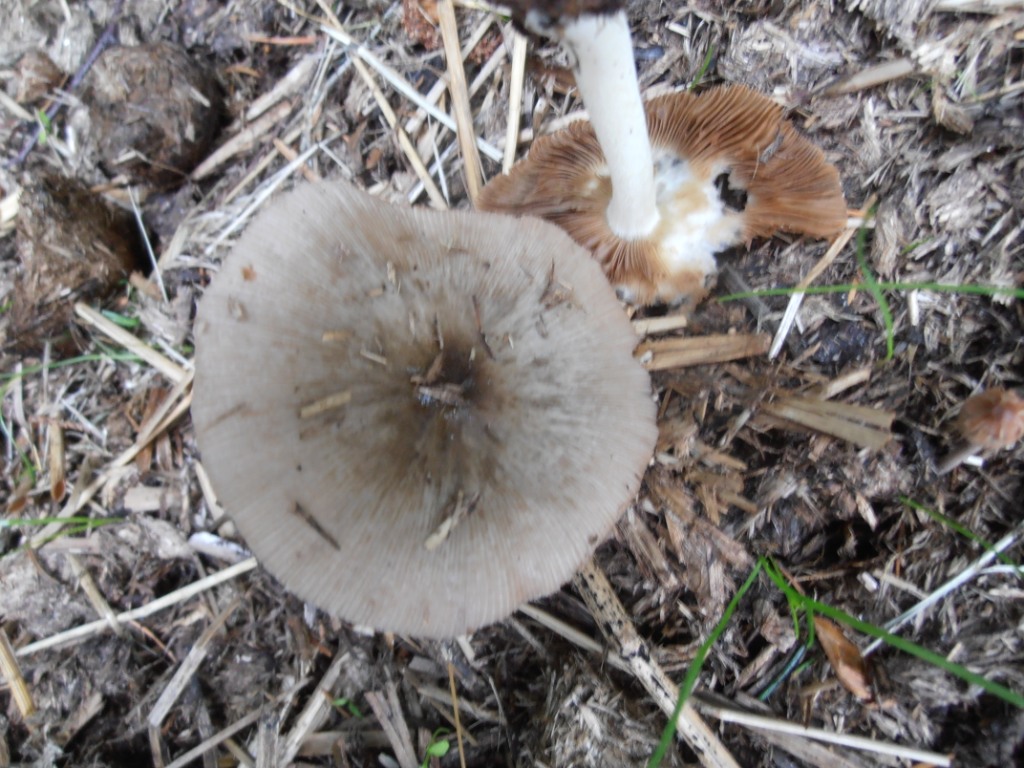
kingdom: Fungi
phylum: Basidiomycota
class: Agaricomycetes
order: Agaricales
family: Bolbitiaceae
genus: Bolbitius
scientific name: Bolbitius demangei
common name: blygrå gulhat
